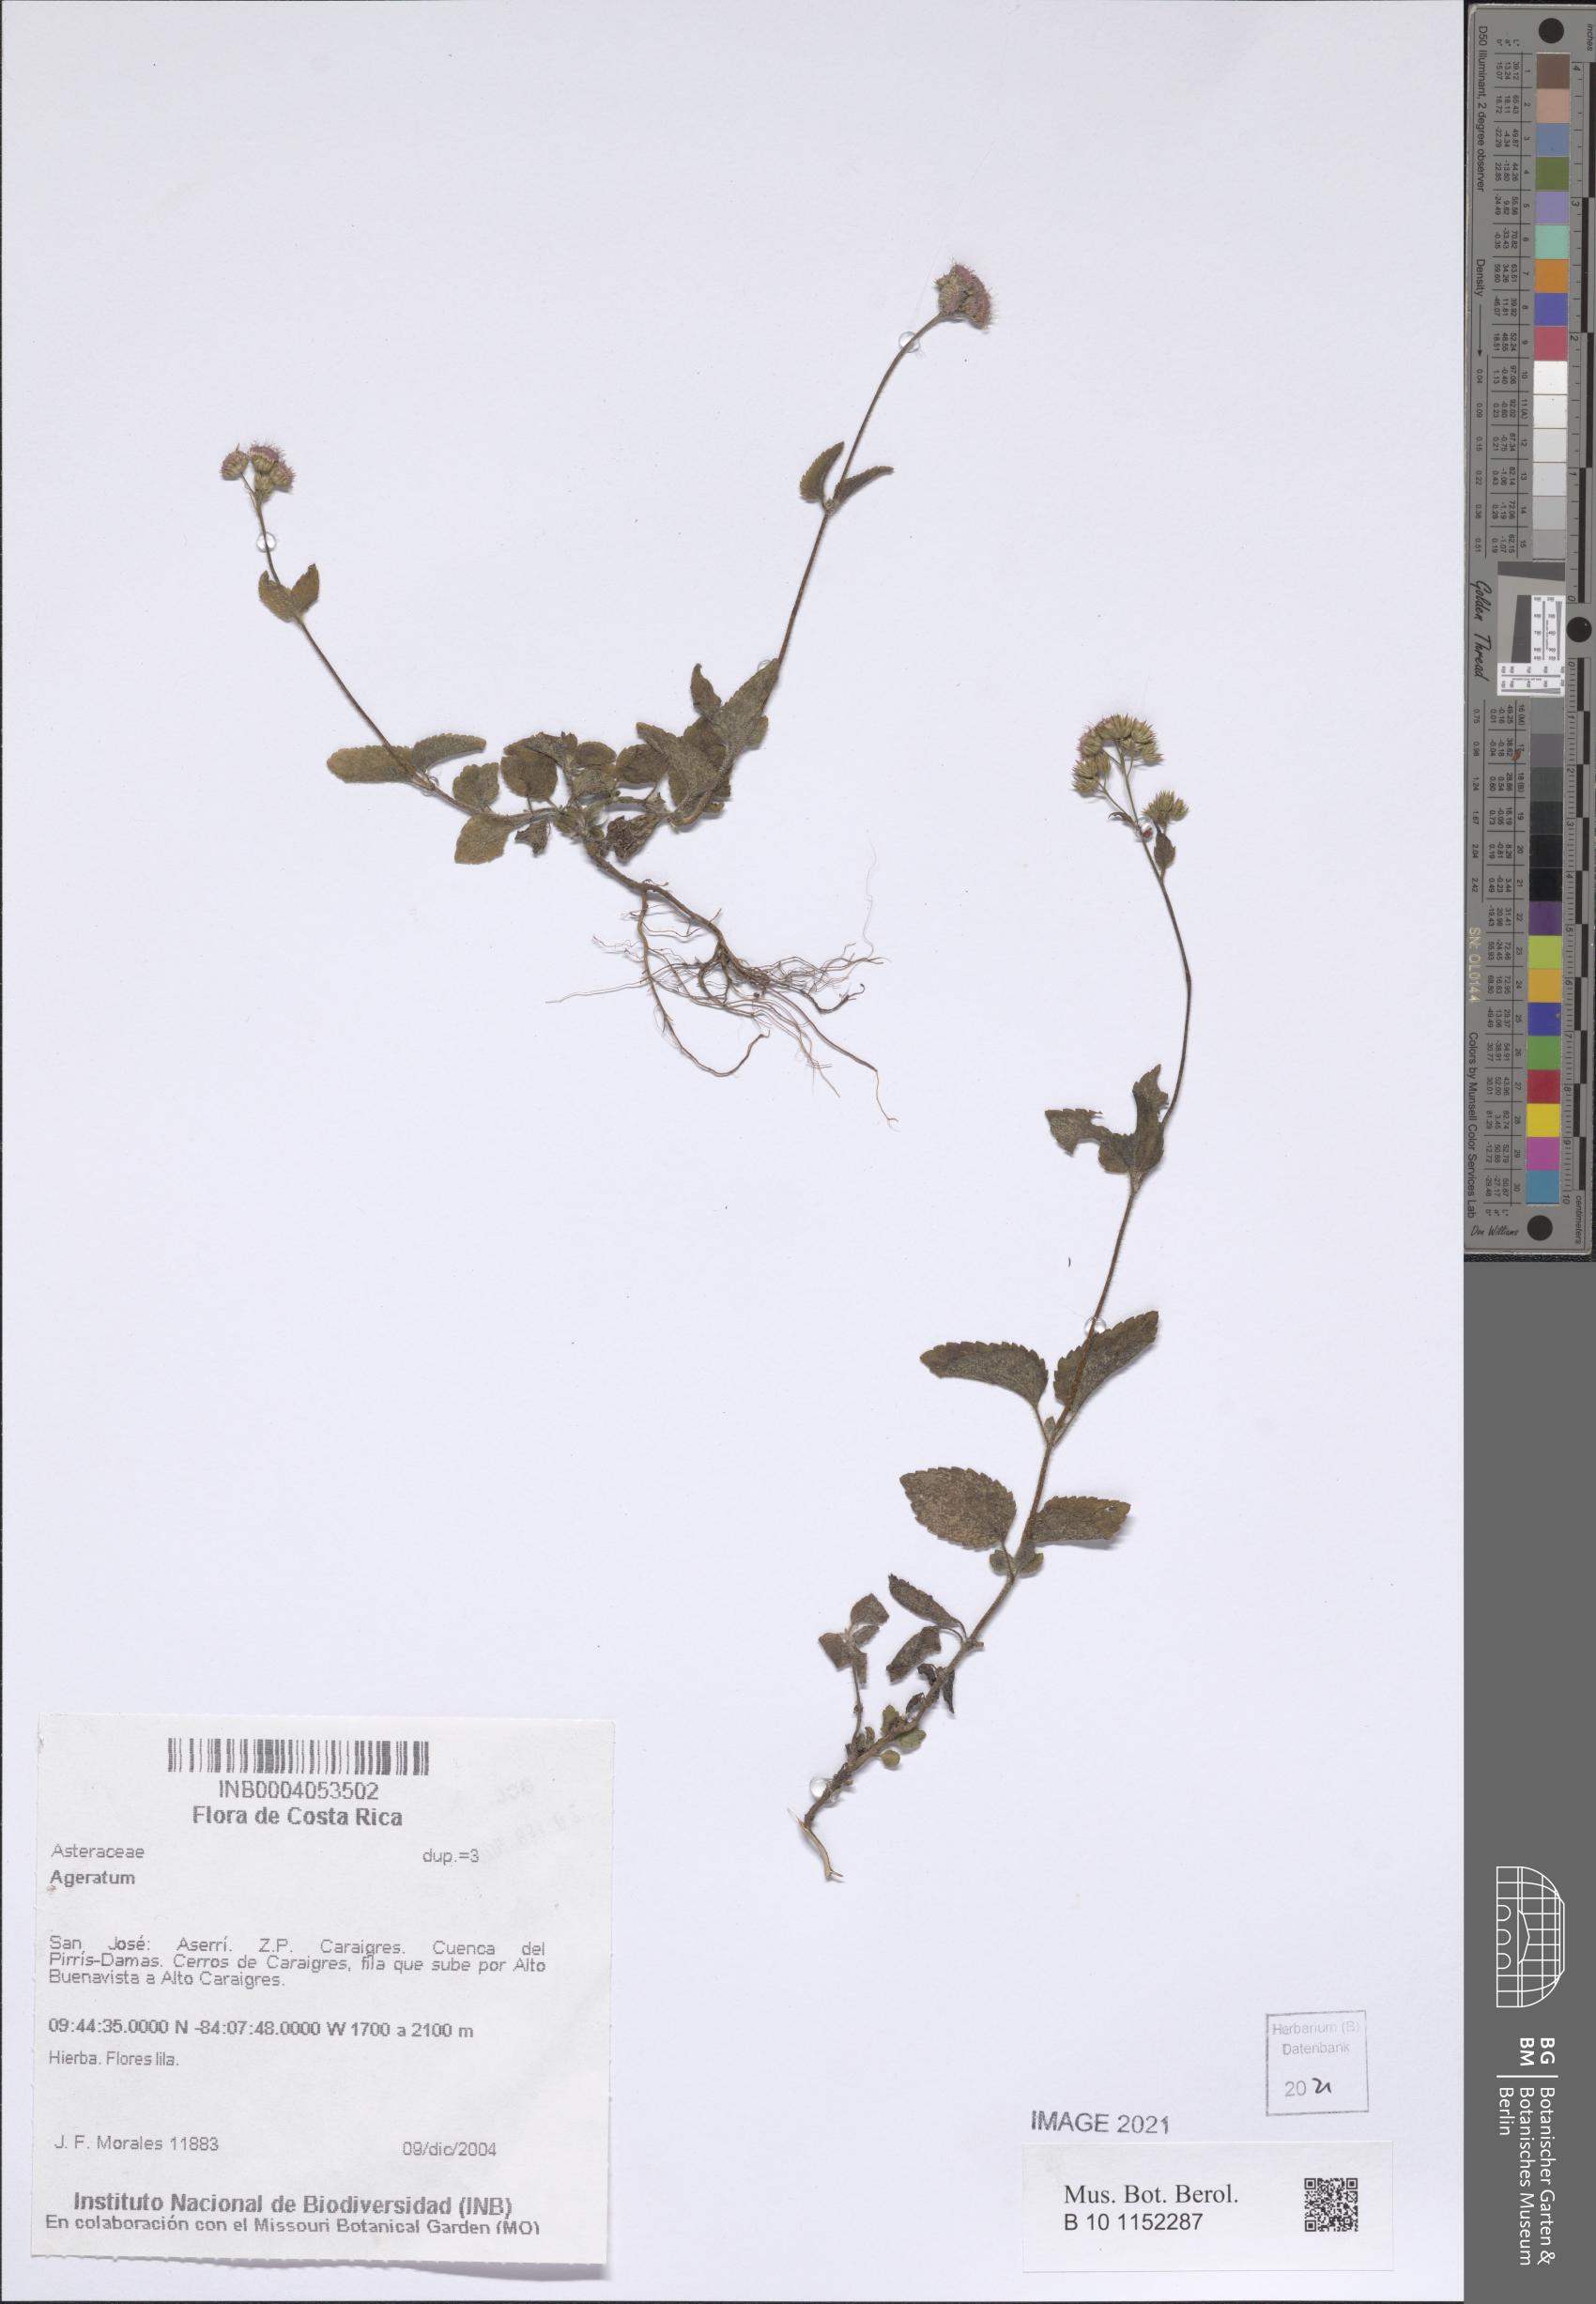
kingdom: Plantae
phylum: Tracheophyta
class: Magnoliopsida
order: Asterales
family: Asteraceae
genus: Ageratum
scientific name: Ageratum
